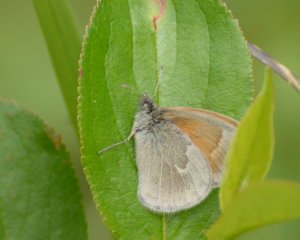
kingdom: Animalia
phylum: Arthropoda
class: Insecta
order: Lepidoptera
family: Nymphalidae
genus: Coenonympha
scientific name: Coenonympha tullia
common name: Large Heath
